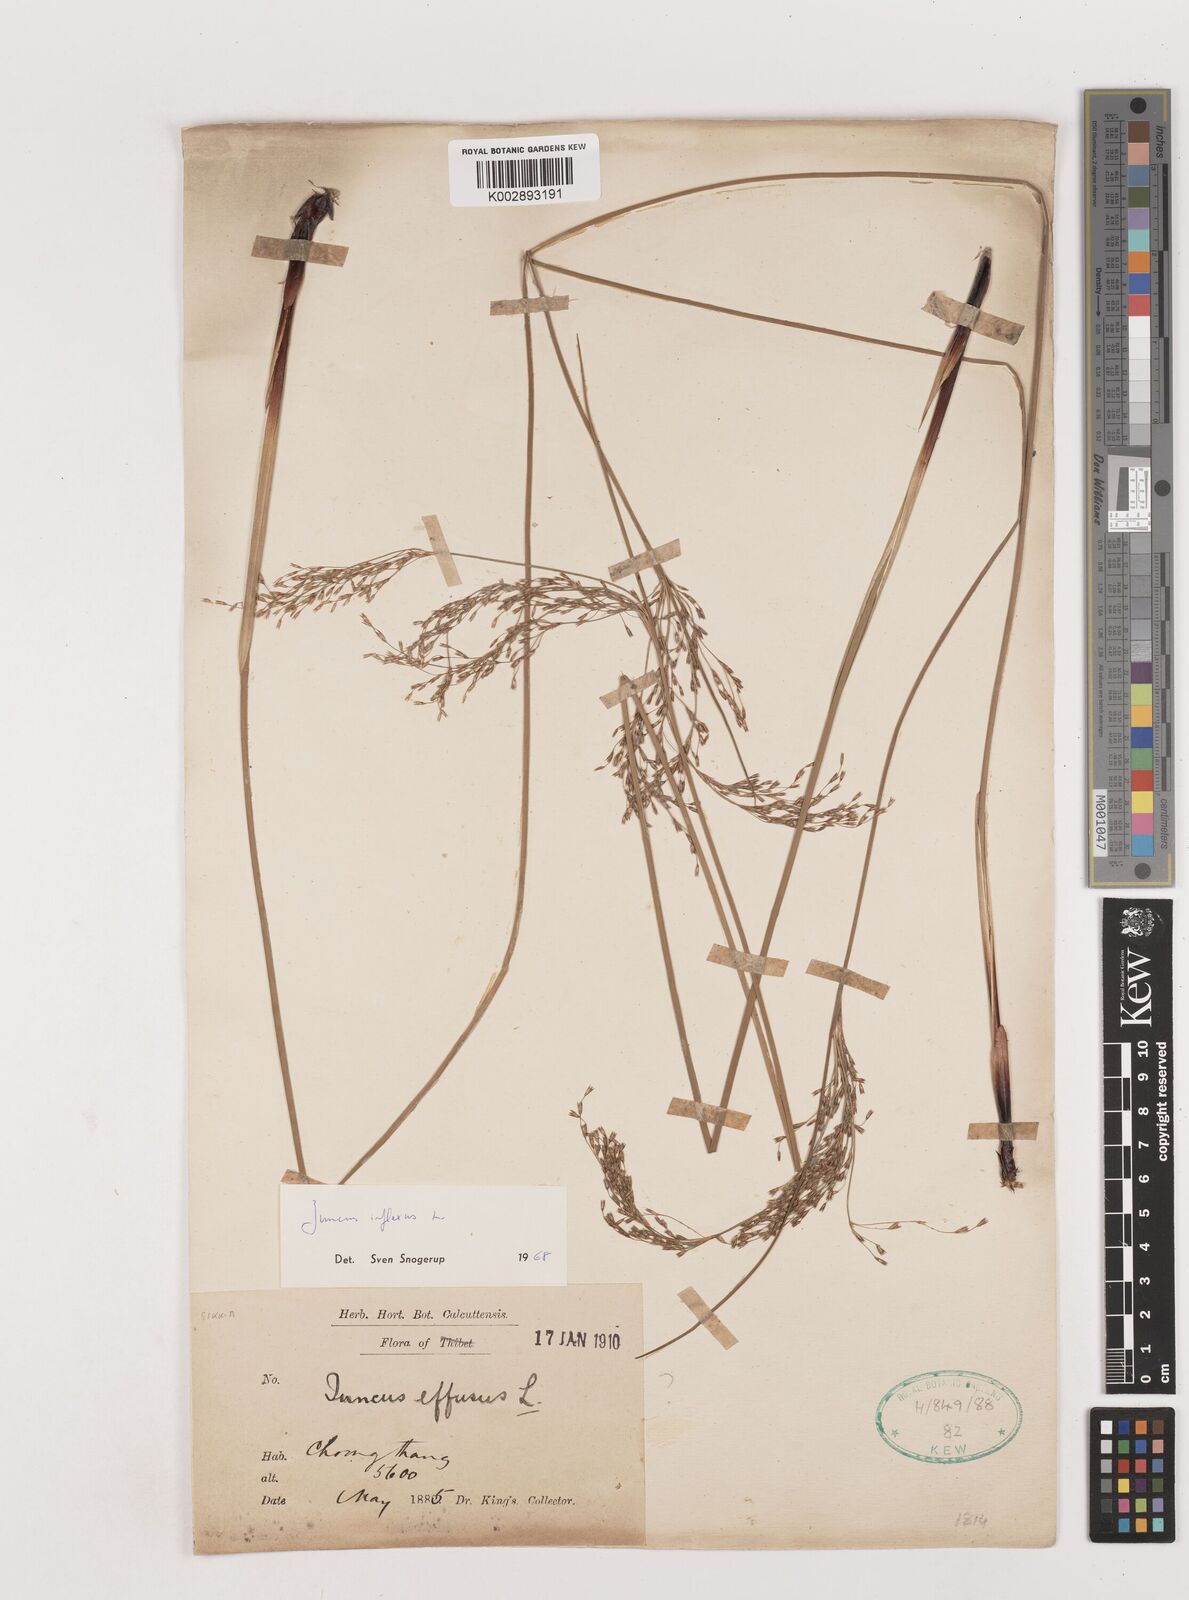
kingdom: Plantae
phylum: Tracheophyta
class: Liliopsida
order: Poales
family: Juncaceae
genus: Juncus
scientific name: Juncus inflexus
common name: Hard rush
